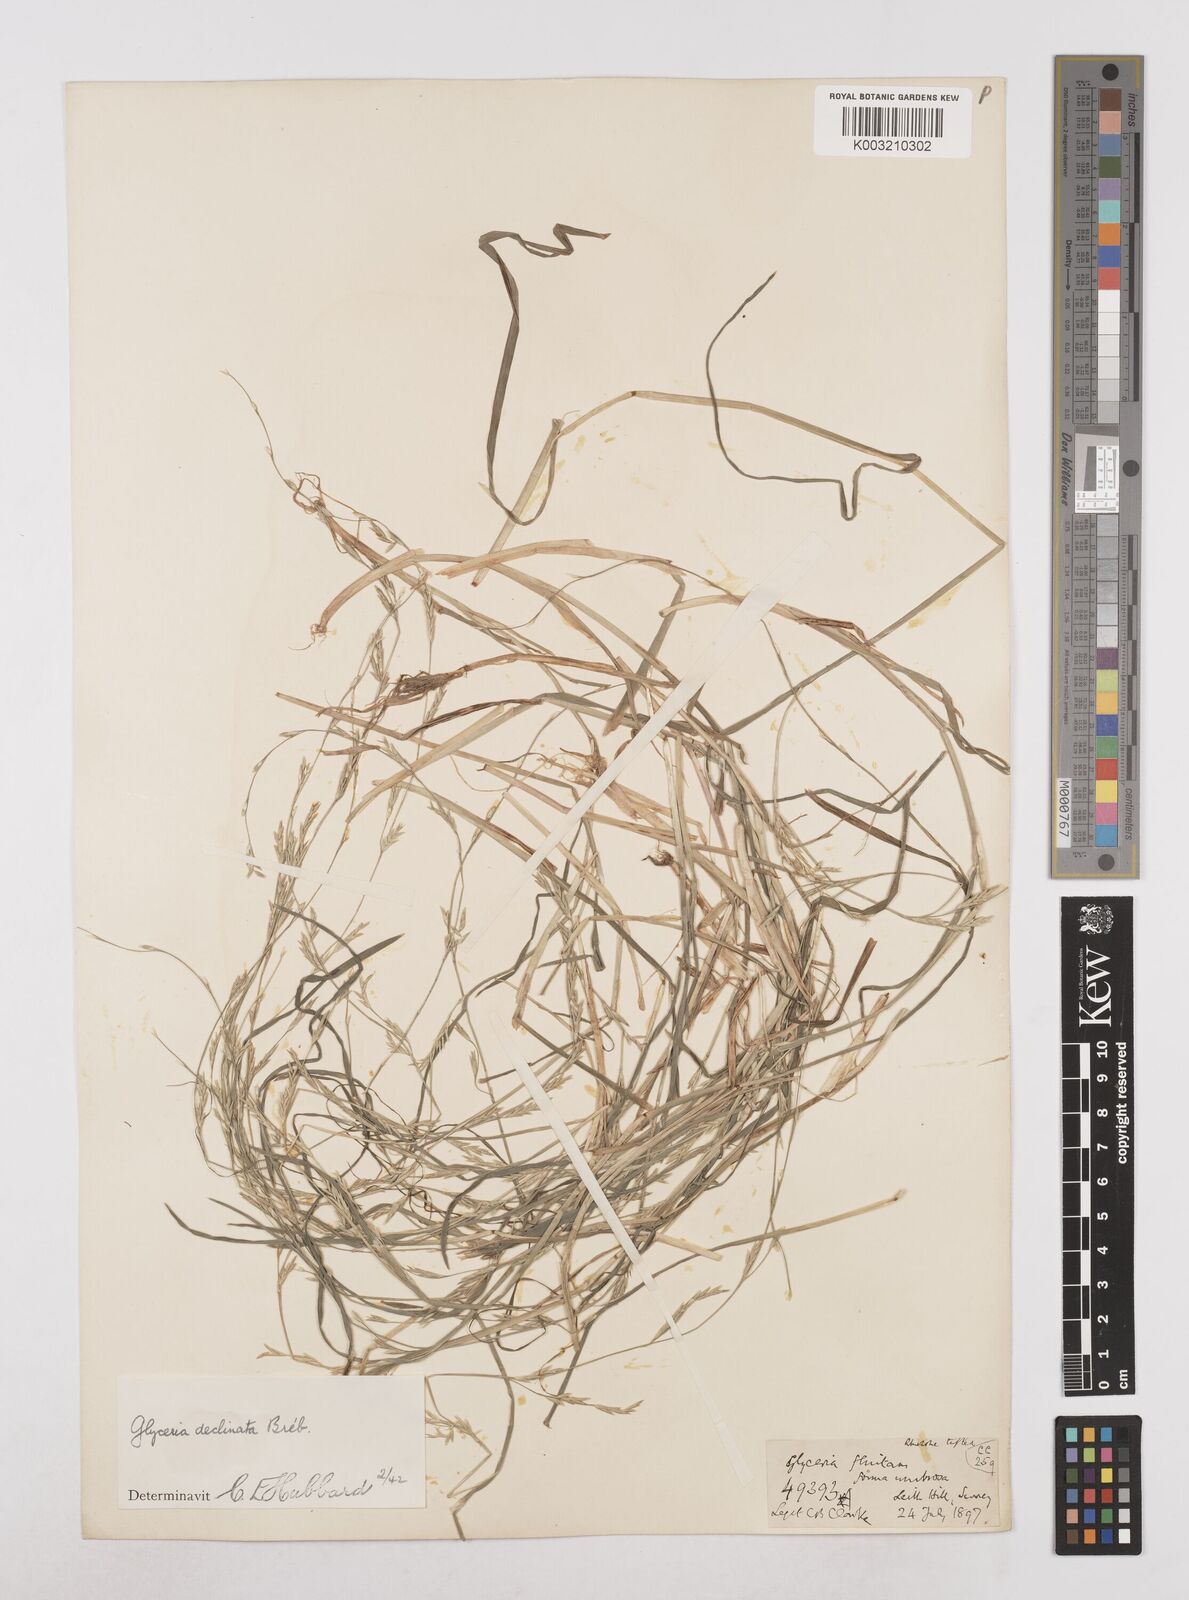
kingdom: Plantae
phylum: Tracheophyta
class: Liliopsida
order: Poales
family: Poaceae
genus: Glyceria
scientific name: Glyceria declinata
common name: Small sweet-grass
